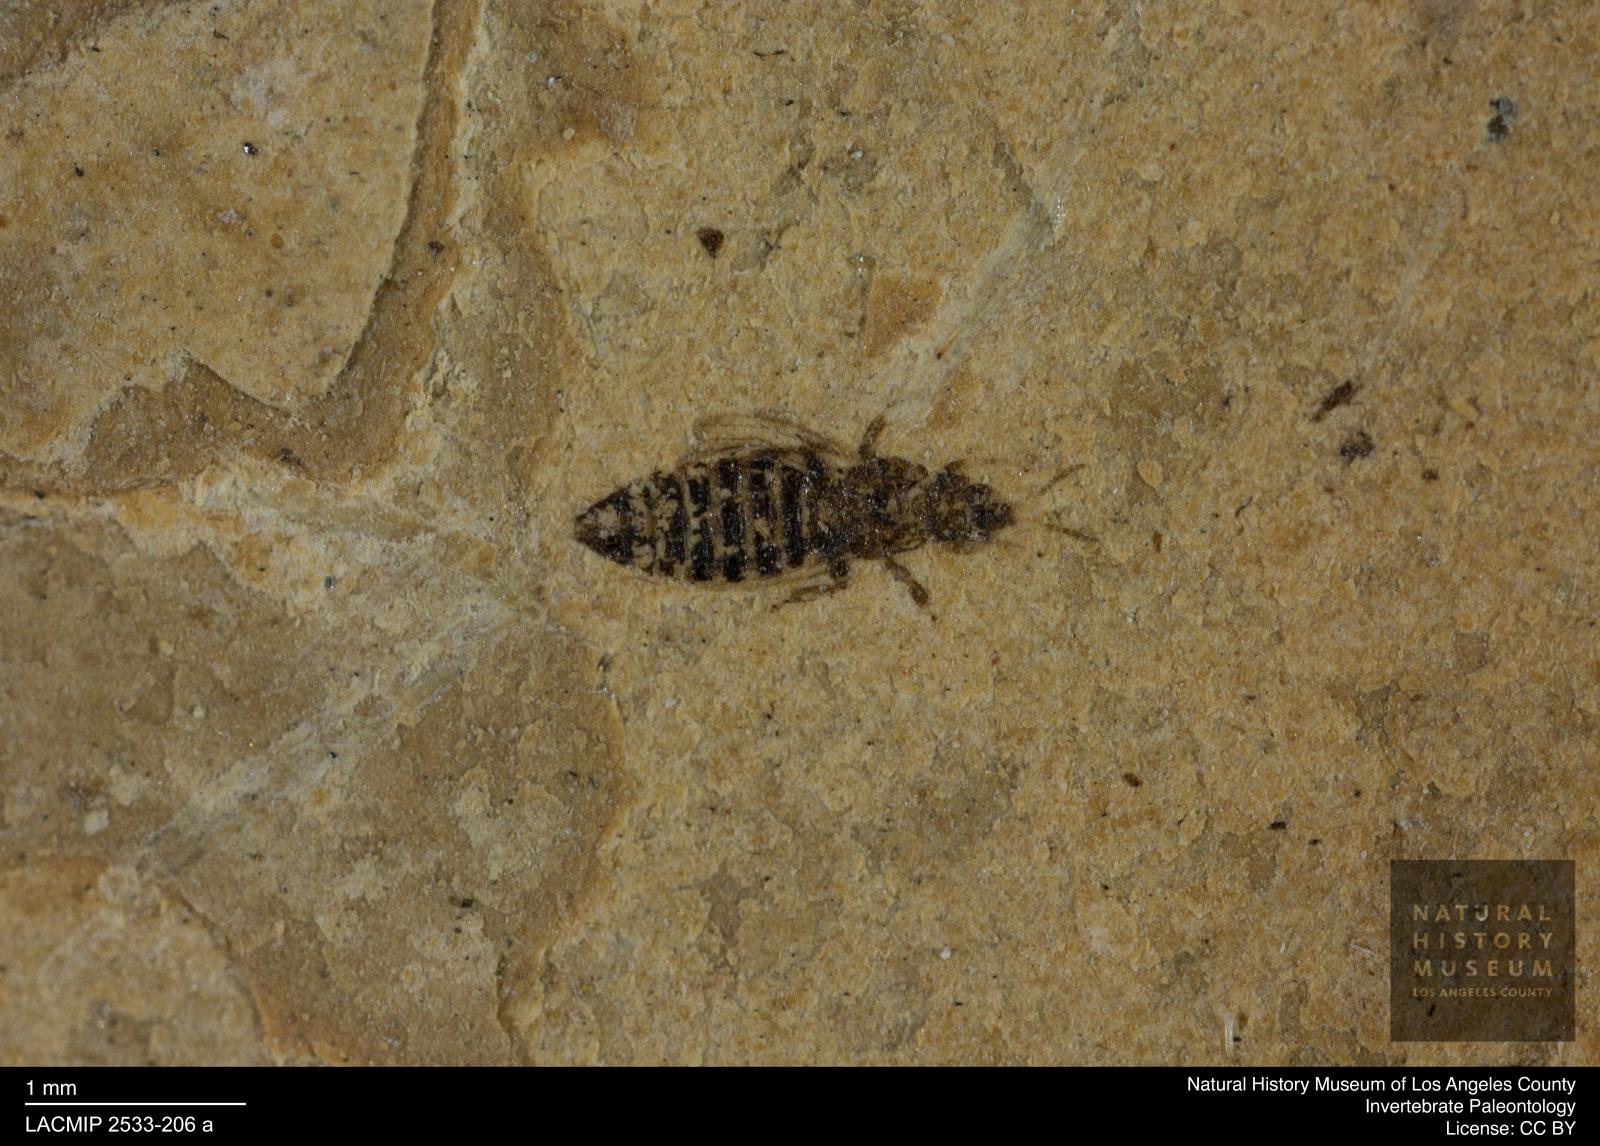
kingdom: Animalia
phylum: Arthropoda
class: Insecta
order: Thysanoptera
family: Thripidae
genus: Thrips
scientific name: Thrips
